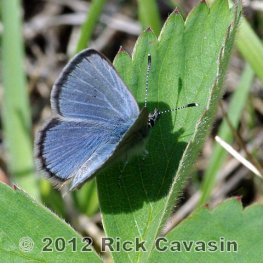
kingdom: Animalia
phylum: Arthropoda
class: Insecta
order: Lepidoptera
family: Lycaenidae
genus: Glaucopsyche
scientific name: Glaucopsyche lygdamus
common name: Silvery Blue
